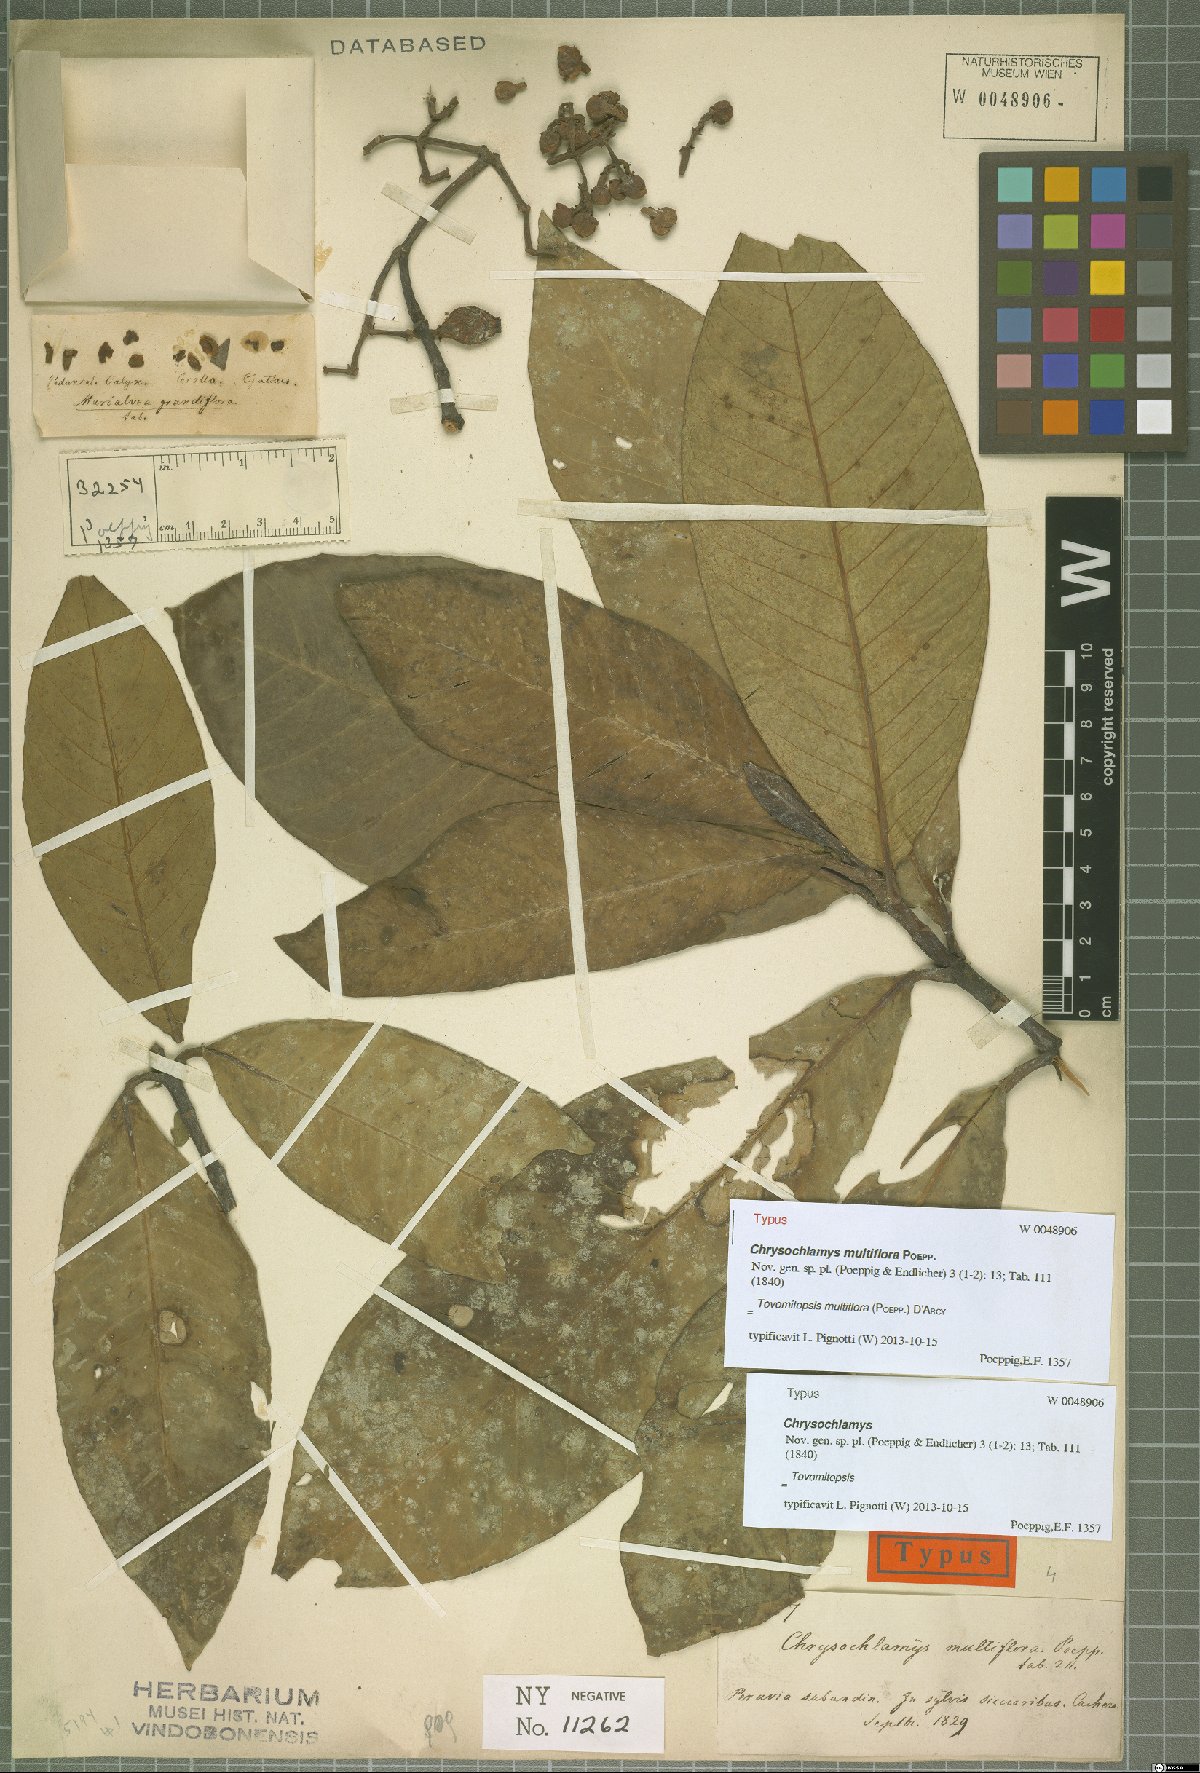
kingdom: Plantae
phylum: Tracheophyta
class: Magnoliopsida
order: Malpighiales
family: Clusiaceae
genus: Chrysochlamys
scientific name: Chrysochlamys multiflora
